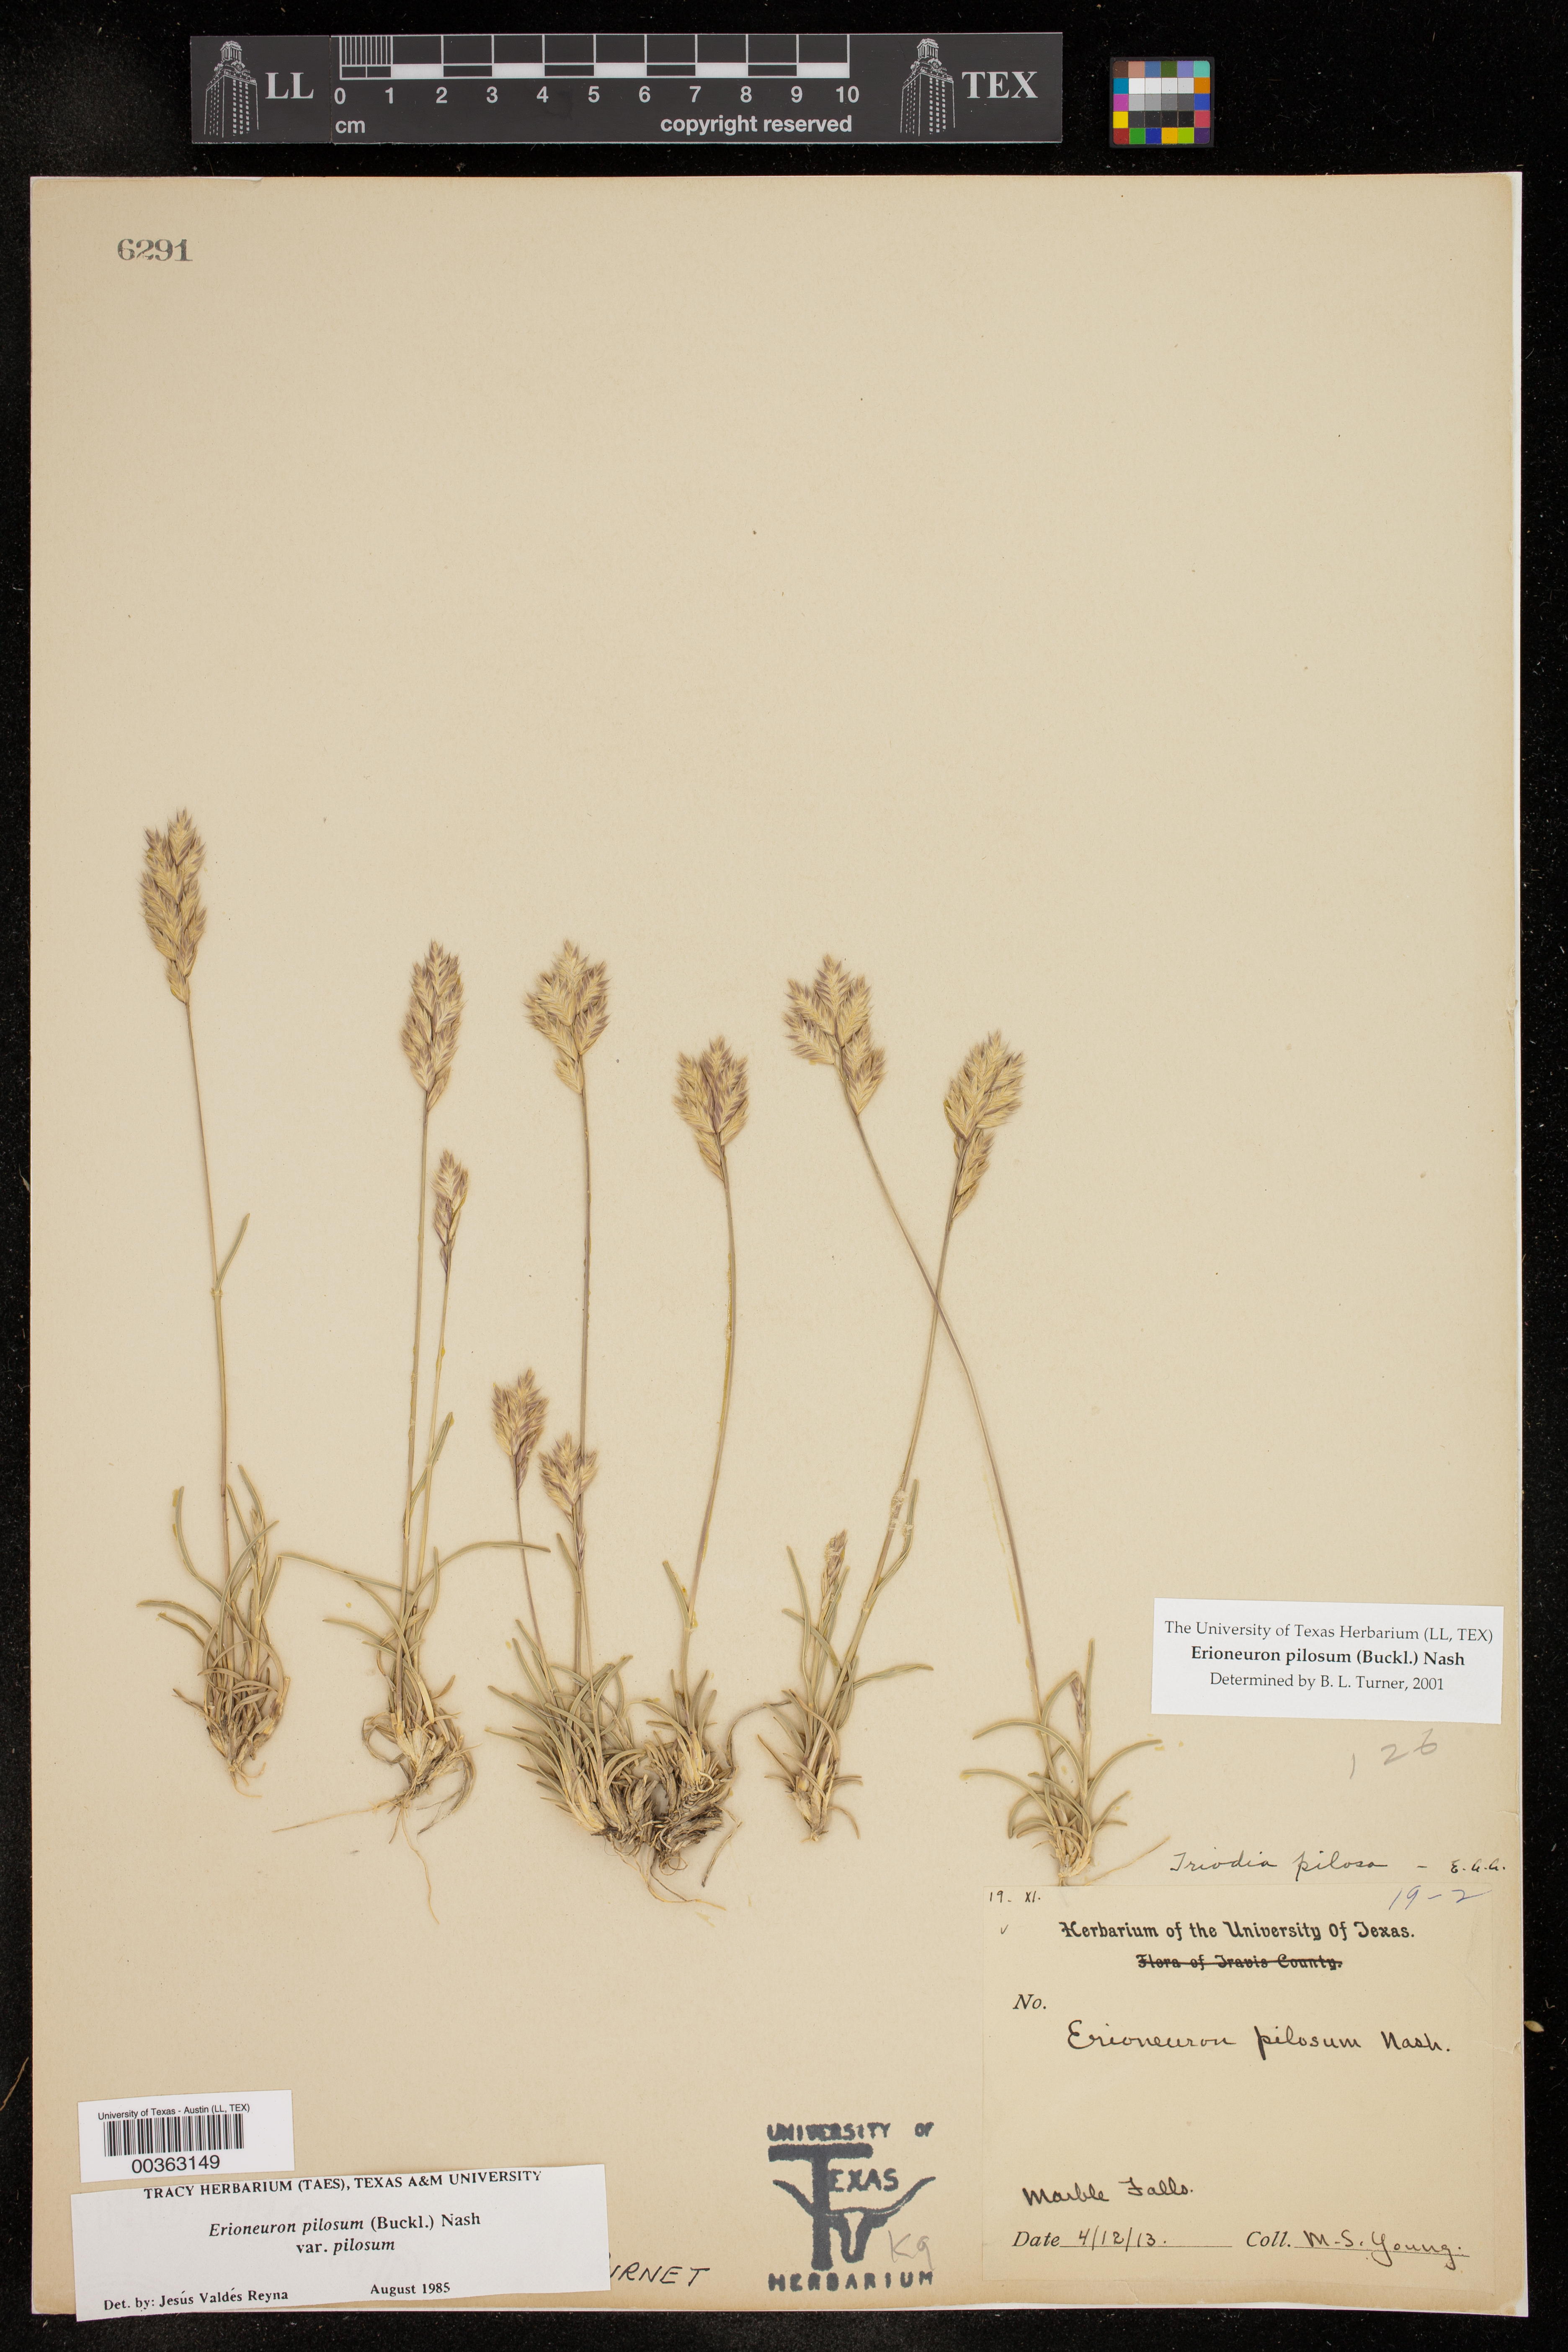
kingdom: Plantae
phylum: Tracheophyta
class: Liliopsida
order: Poales
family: Poaceae
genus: Erioneuron
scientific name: Erioneuron pilosum
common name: Hairy woolly grass
